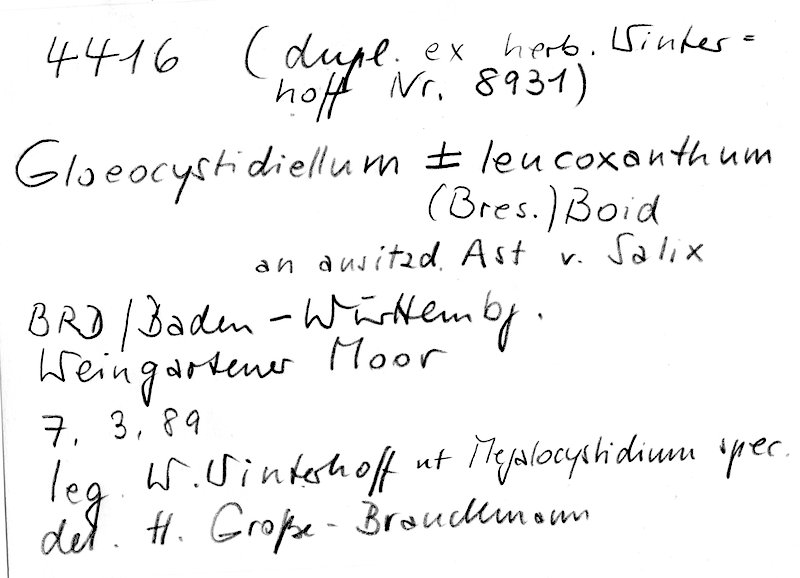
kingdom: Fungi
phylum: Basidiomycota
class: Agaricomycetes
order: Russulales
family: Stereaceae
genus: Megalocystidium
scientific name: Megalocystidium leucoxanthum
